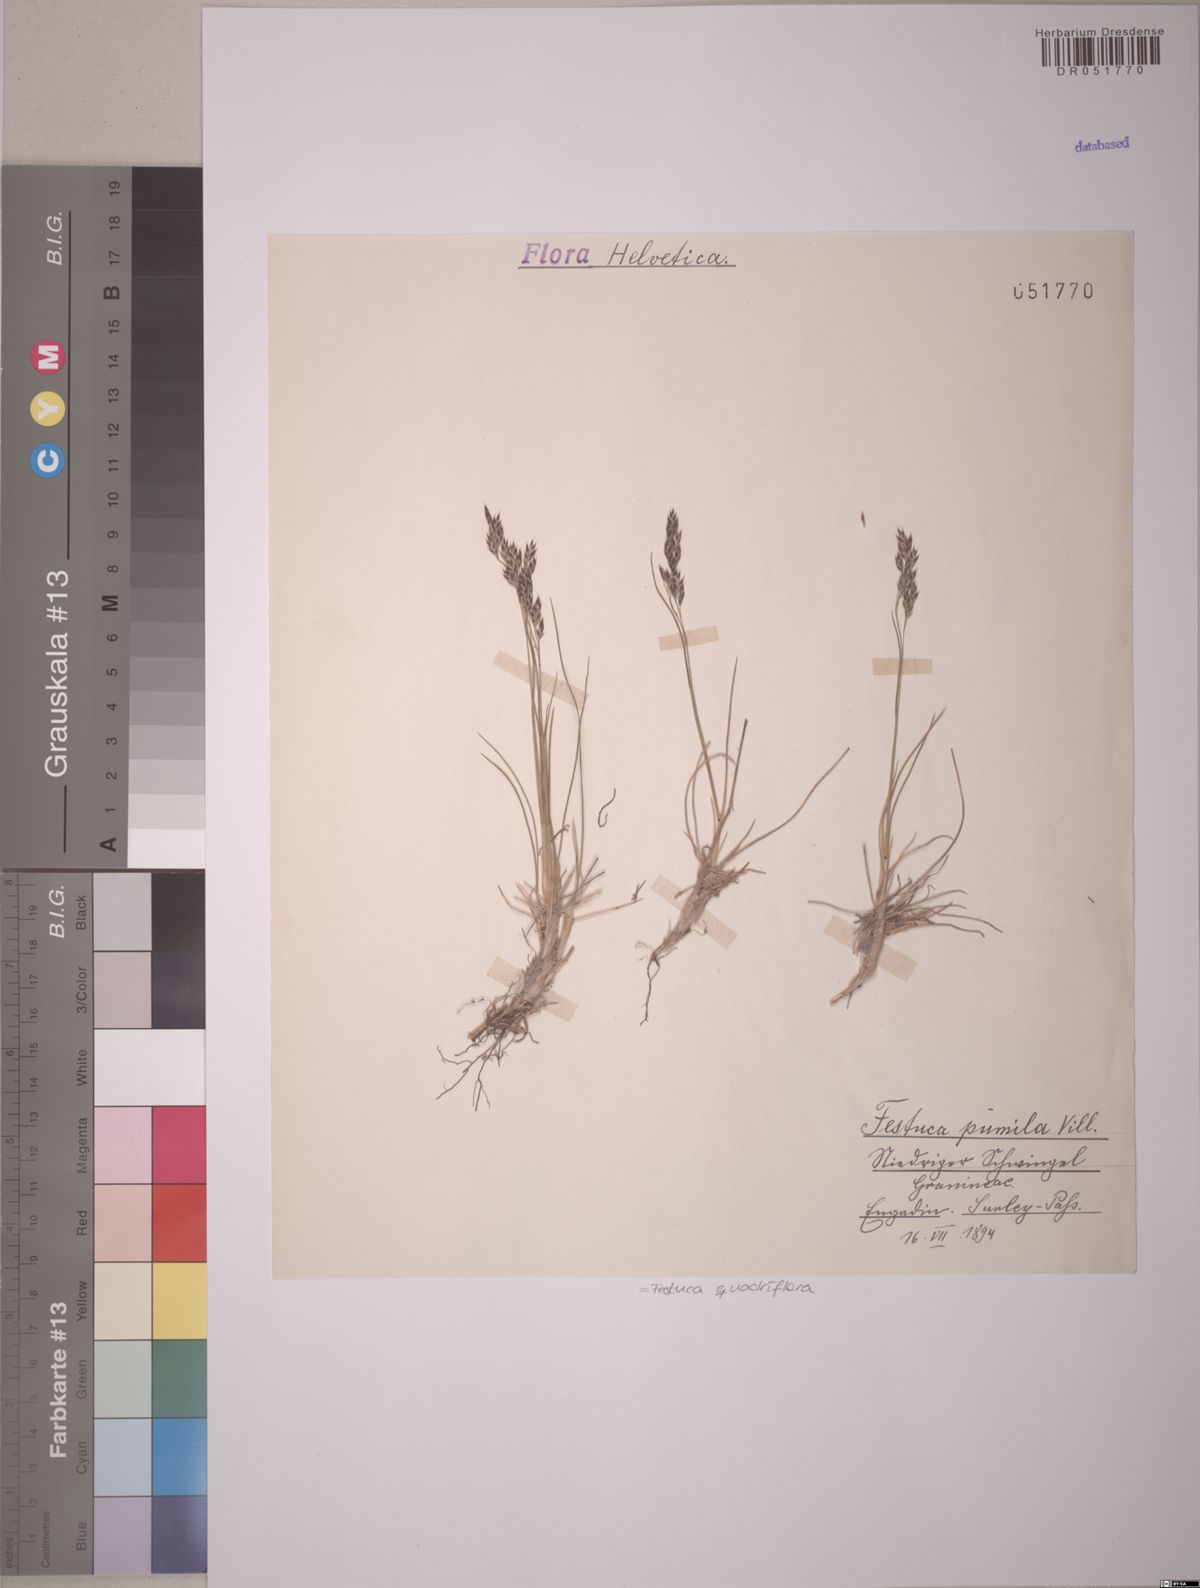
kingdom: Plantae
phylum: Tracheophyta
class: Liliopsida
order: Poales
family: Poaceae
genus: Festuca
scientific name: Festuca quadriflora
